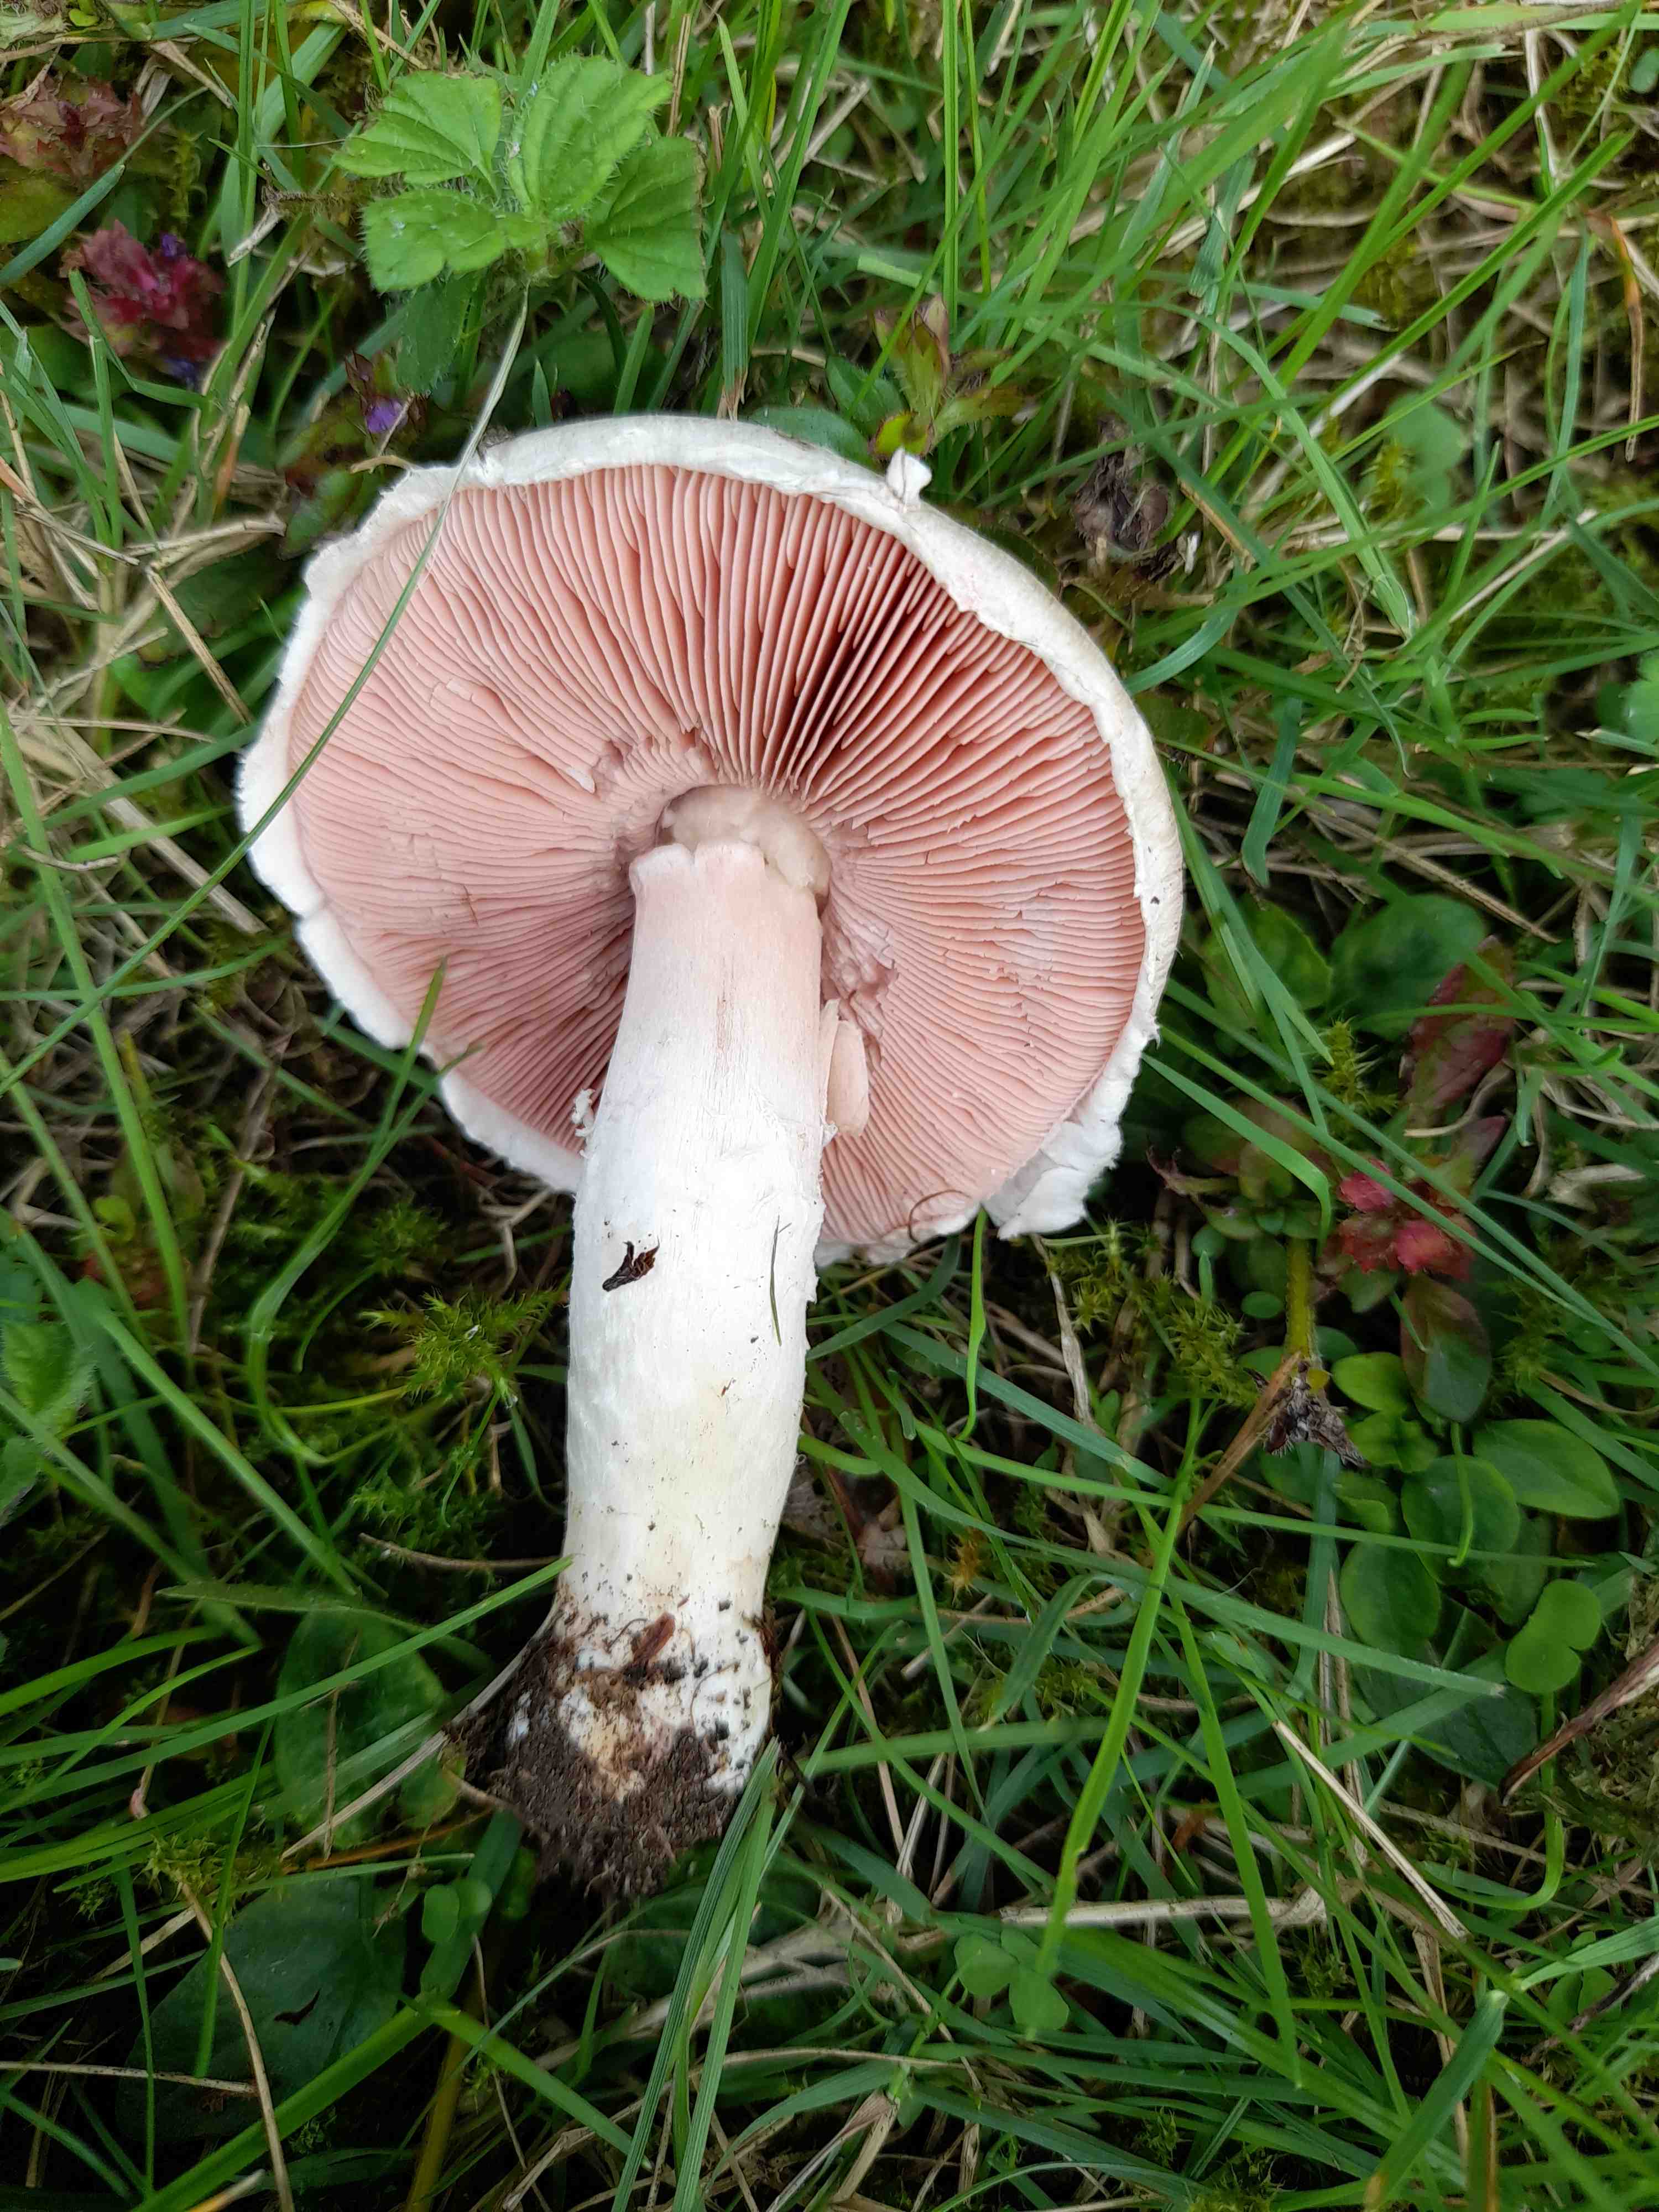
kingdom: Fungi
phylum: Basidiomycota
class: Agaricomycetes
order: Agaricales
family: Agaricaceae
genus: Agaricus
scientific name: Agaricus campestris
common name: mark-champignon
